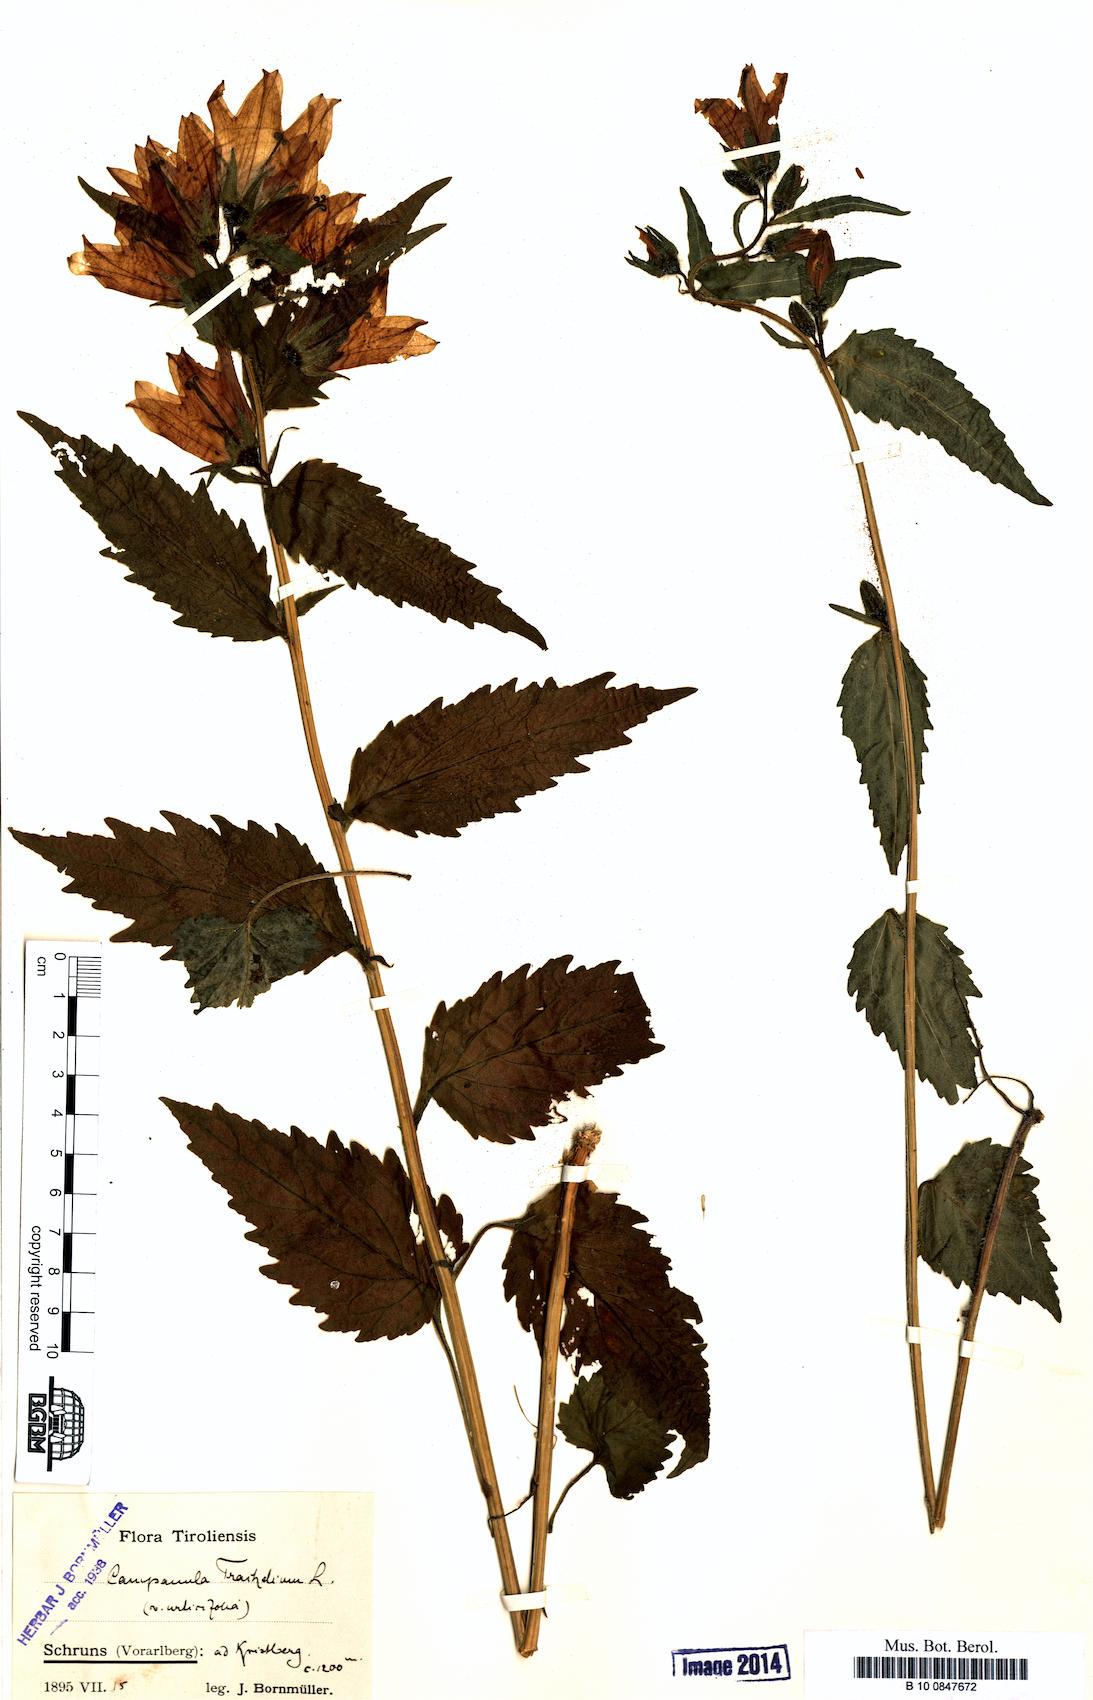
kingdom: Plantae
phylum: Tracheophyta
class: Magnoliopsida
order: Asterales
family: Campanulaceae
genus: Campanula
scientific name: Campanula trachelium
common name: Nettle-leaved bellflower
